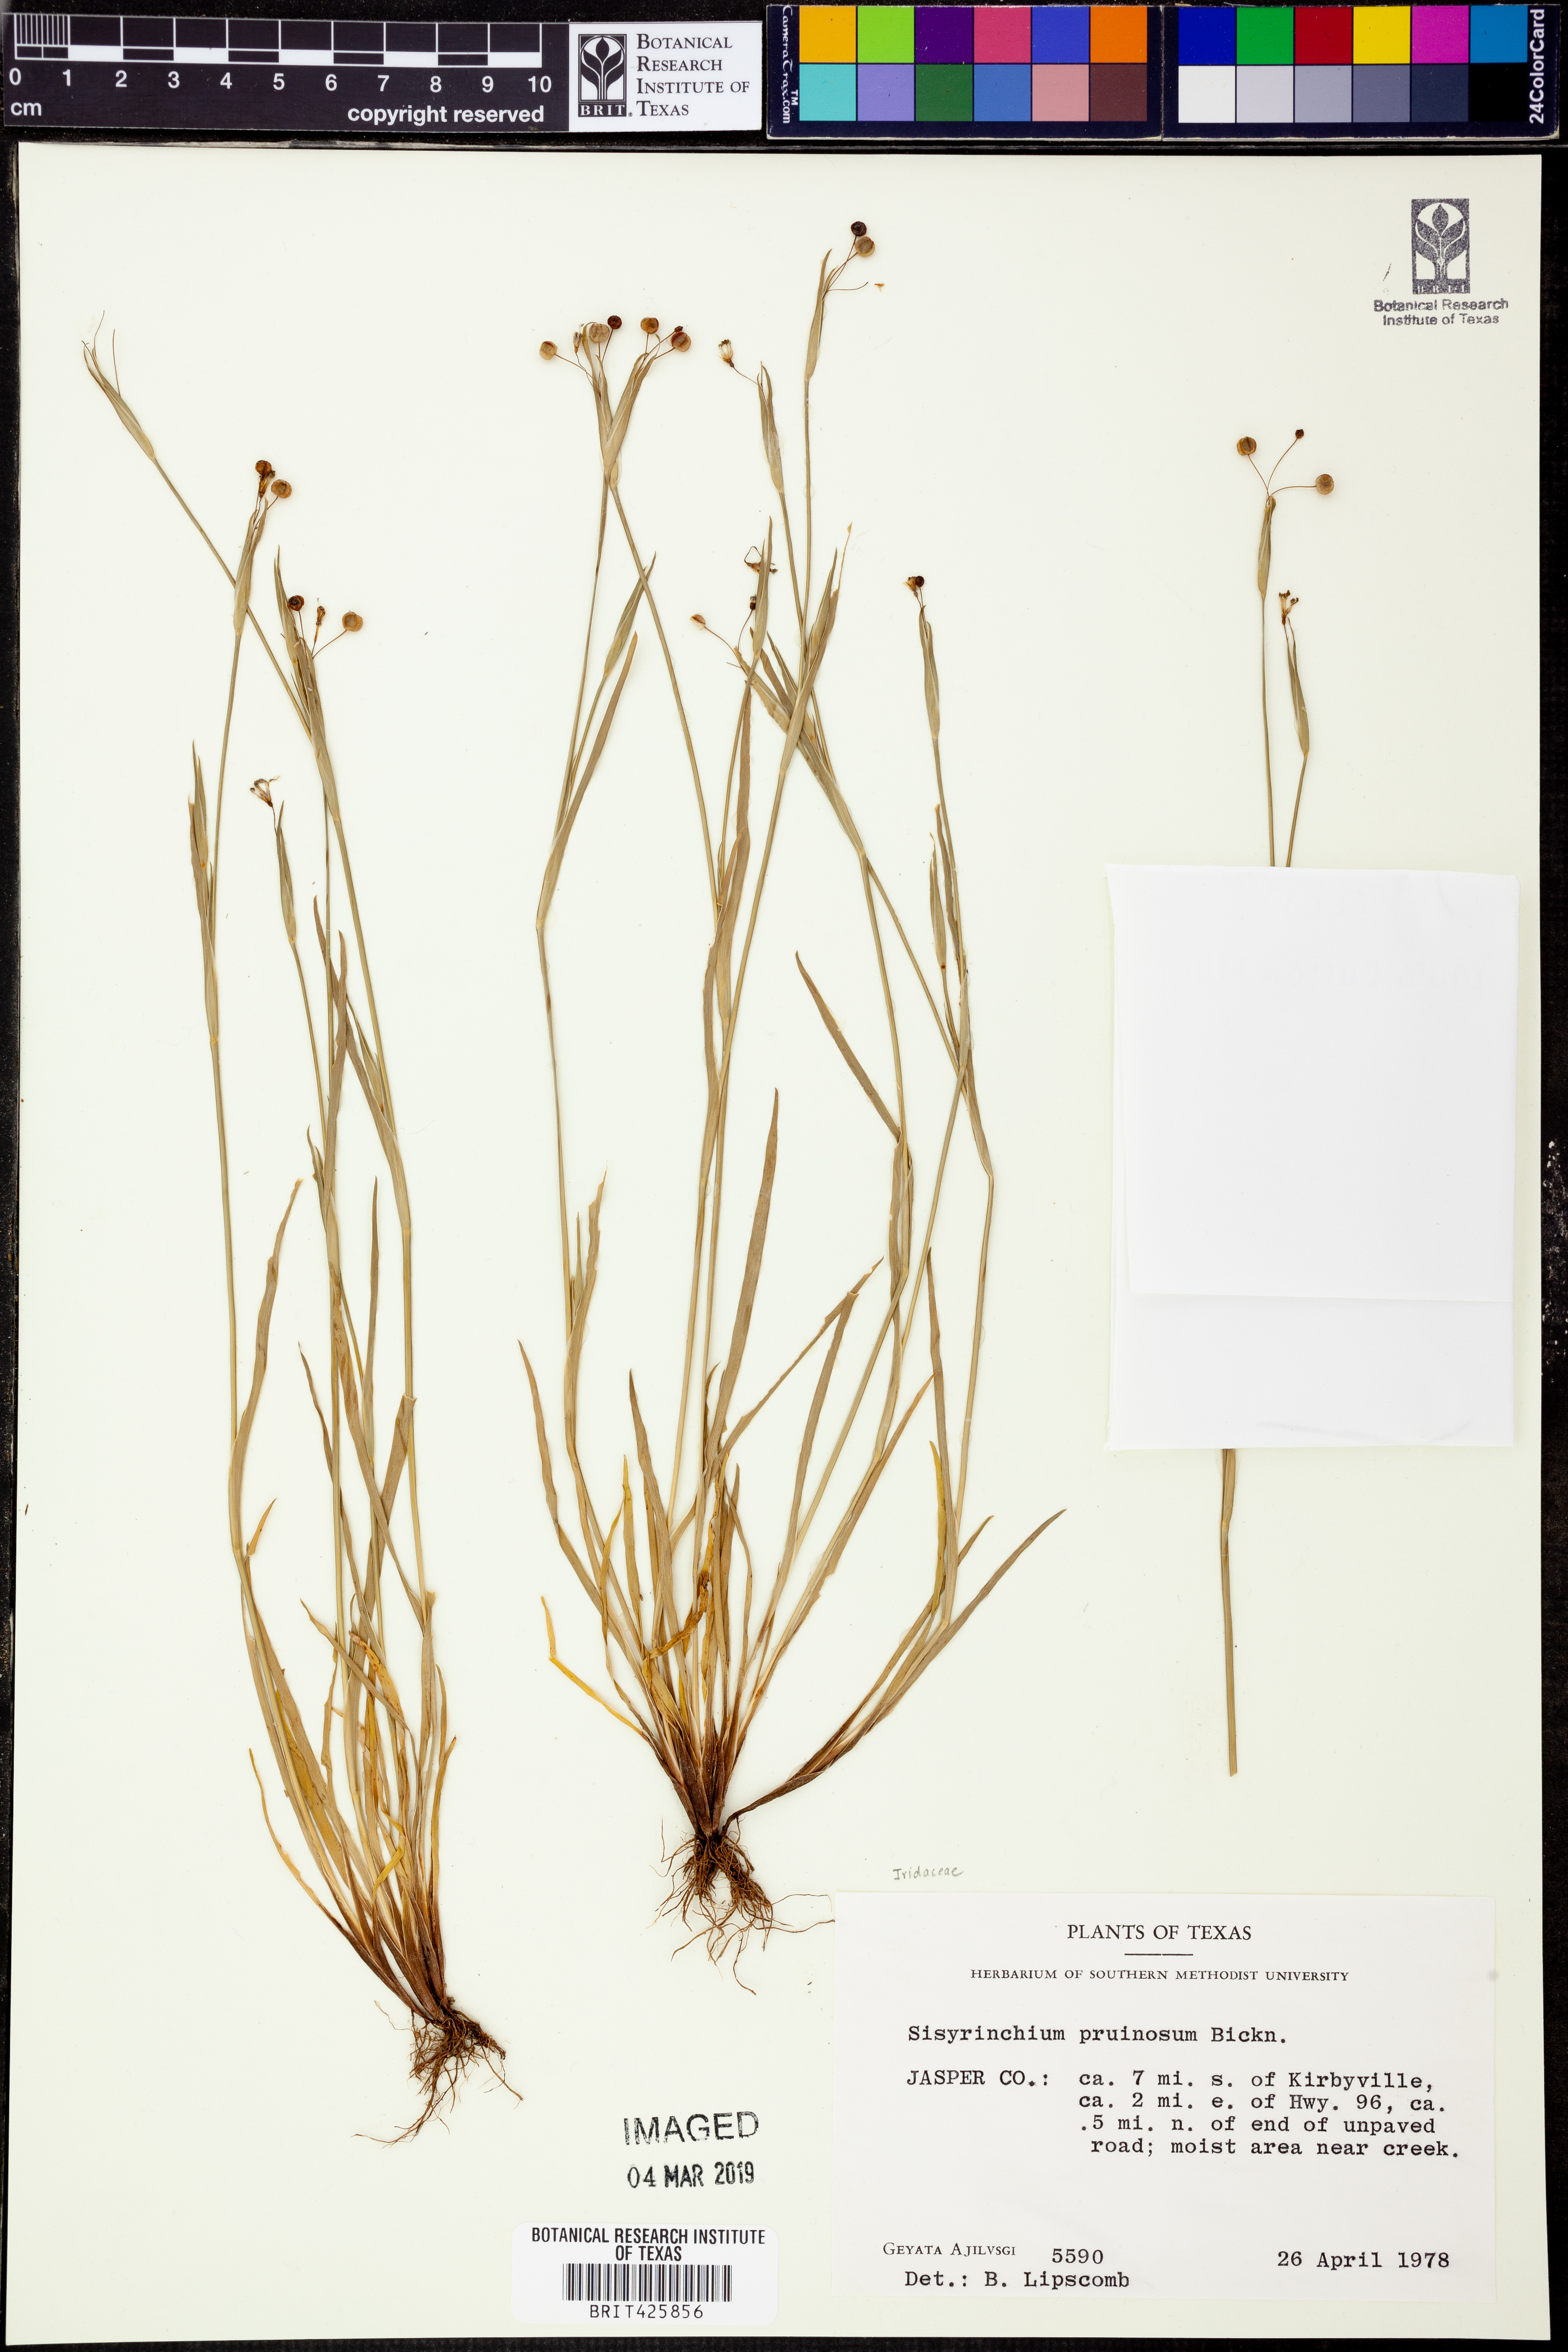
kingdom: Plantae
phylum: Tracheophyta
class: Liliopsida
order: Asparagales
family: Iridaceae
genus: Sisyrinchium
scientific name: Sisyrinchium pruinosum
